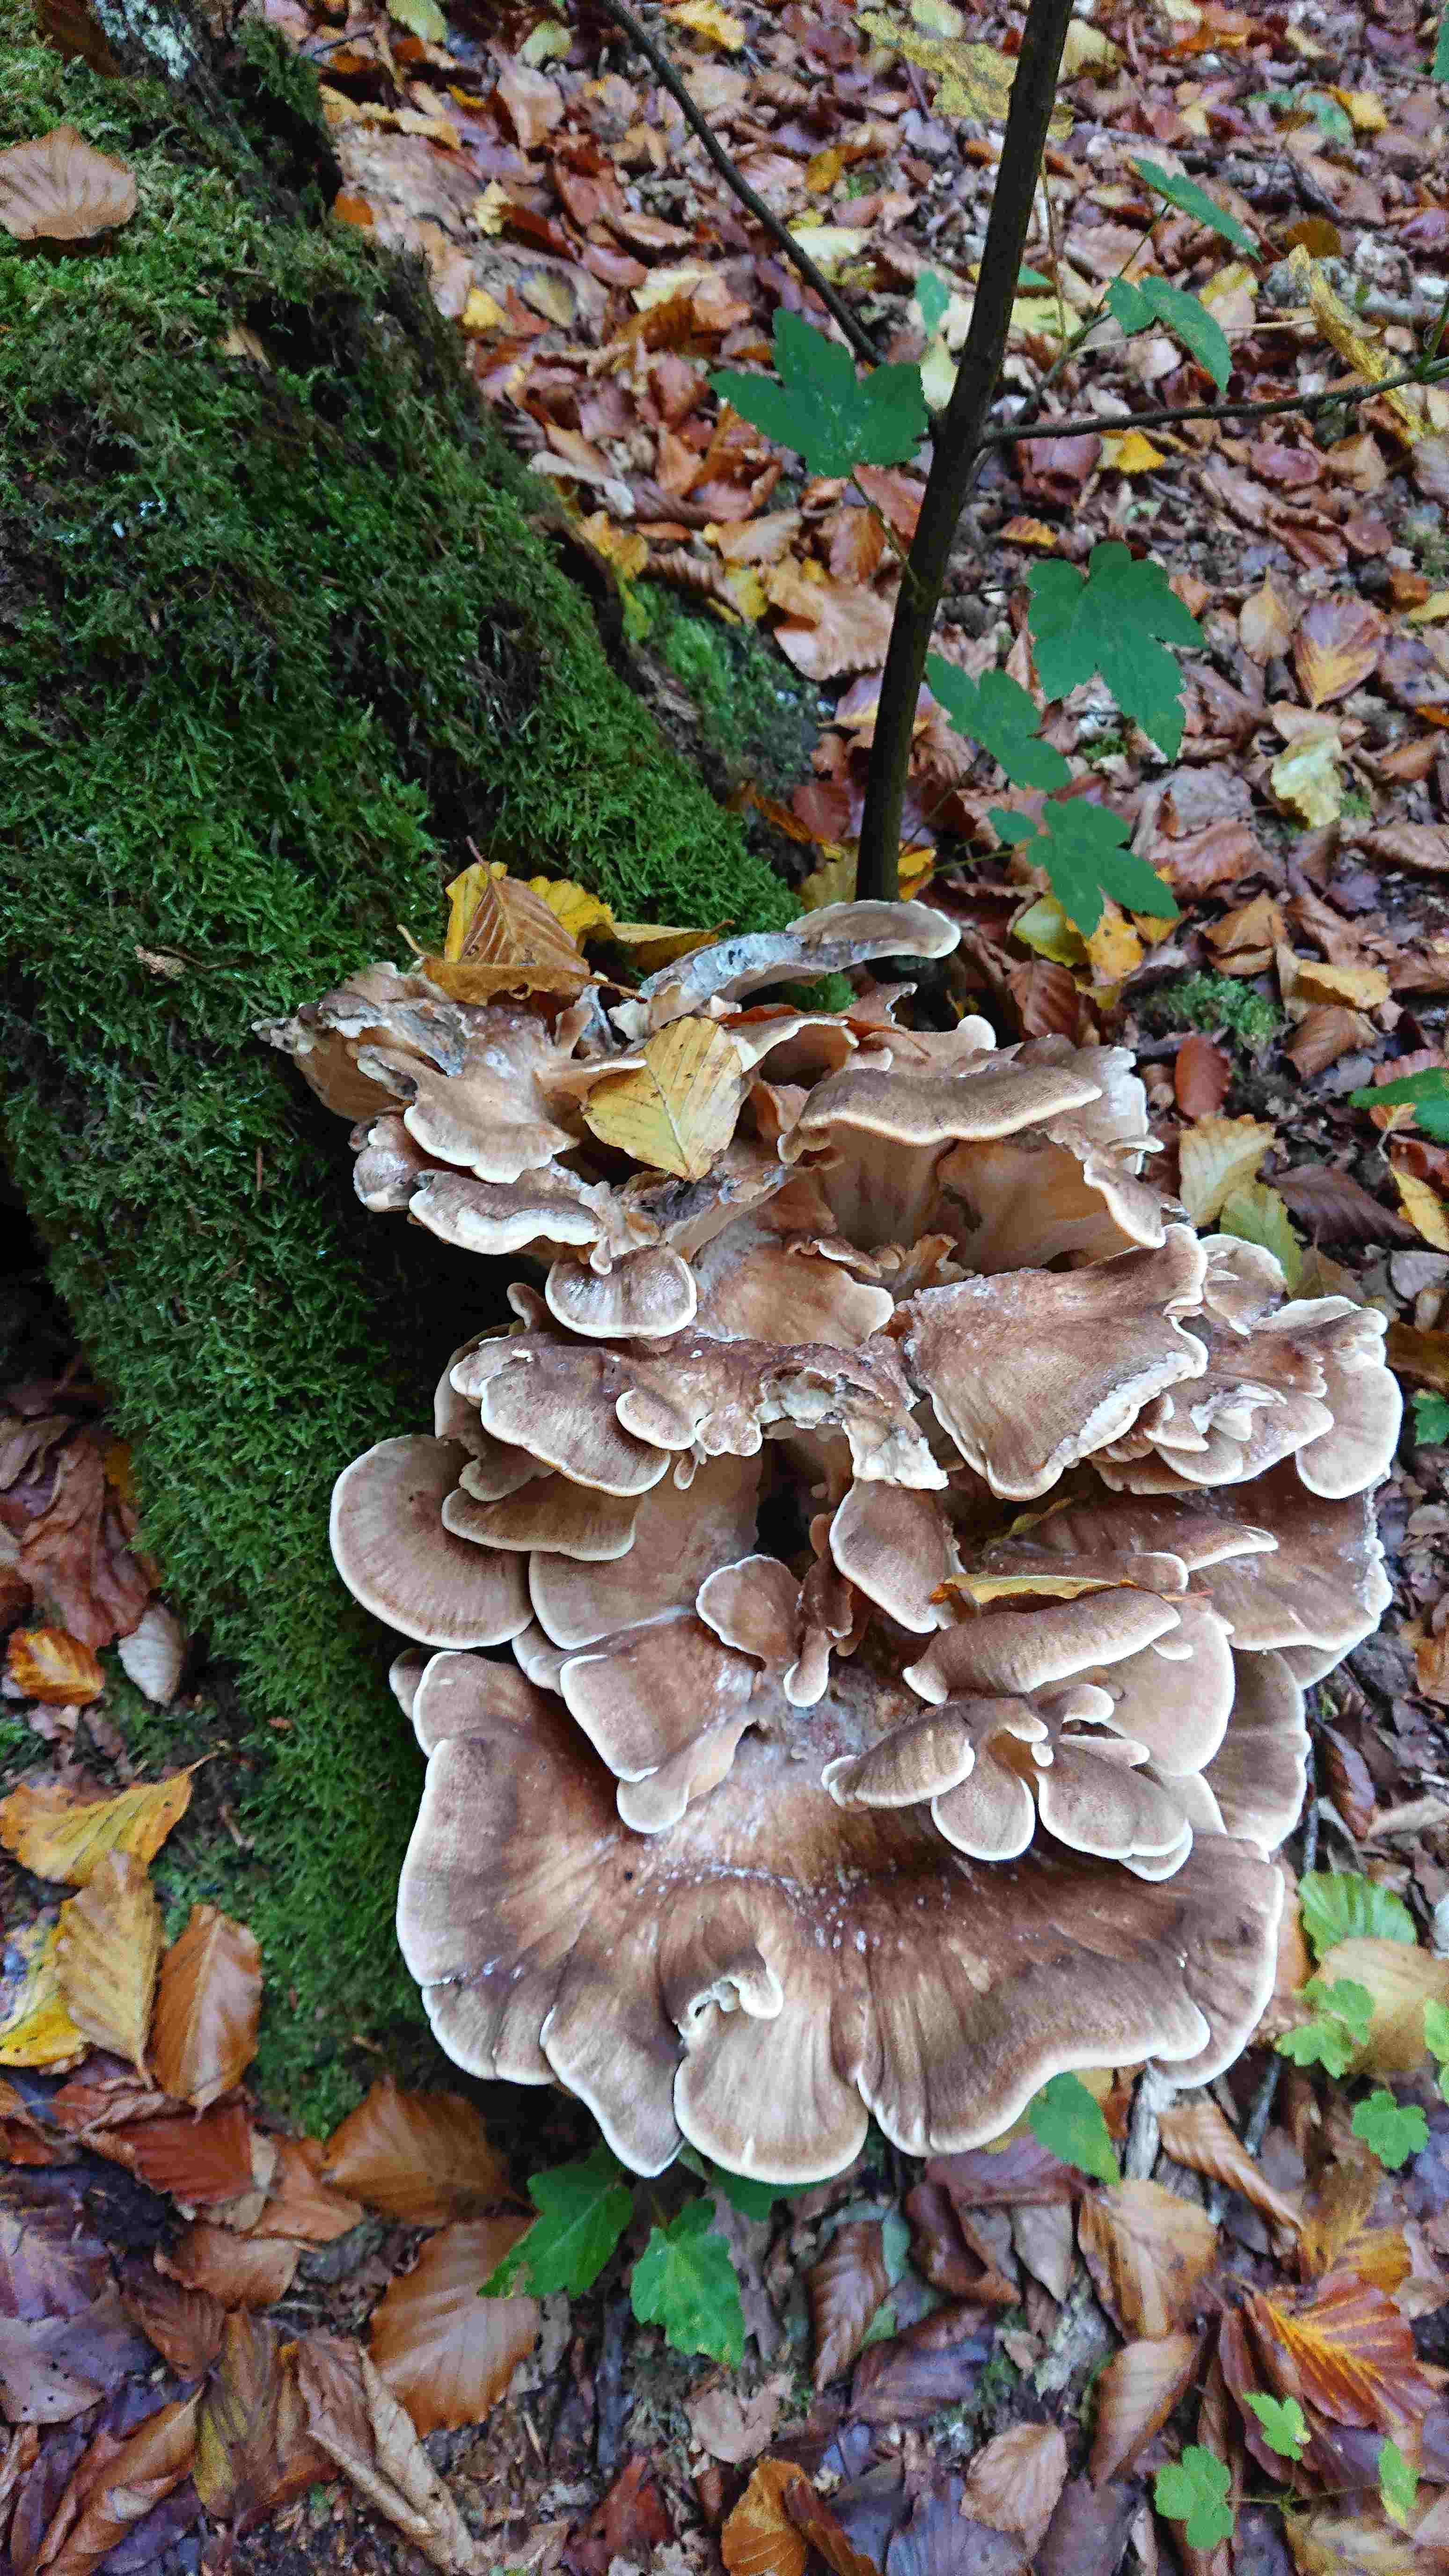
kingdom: Fungi
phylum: Basidiomycota
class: Agaricomycetes
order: Polyporales
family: Meripilaceae
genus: Meripilus
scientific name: Meripilus giganteus
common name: kæmpeporesvamp
